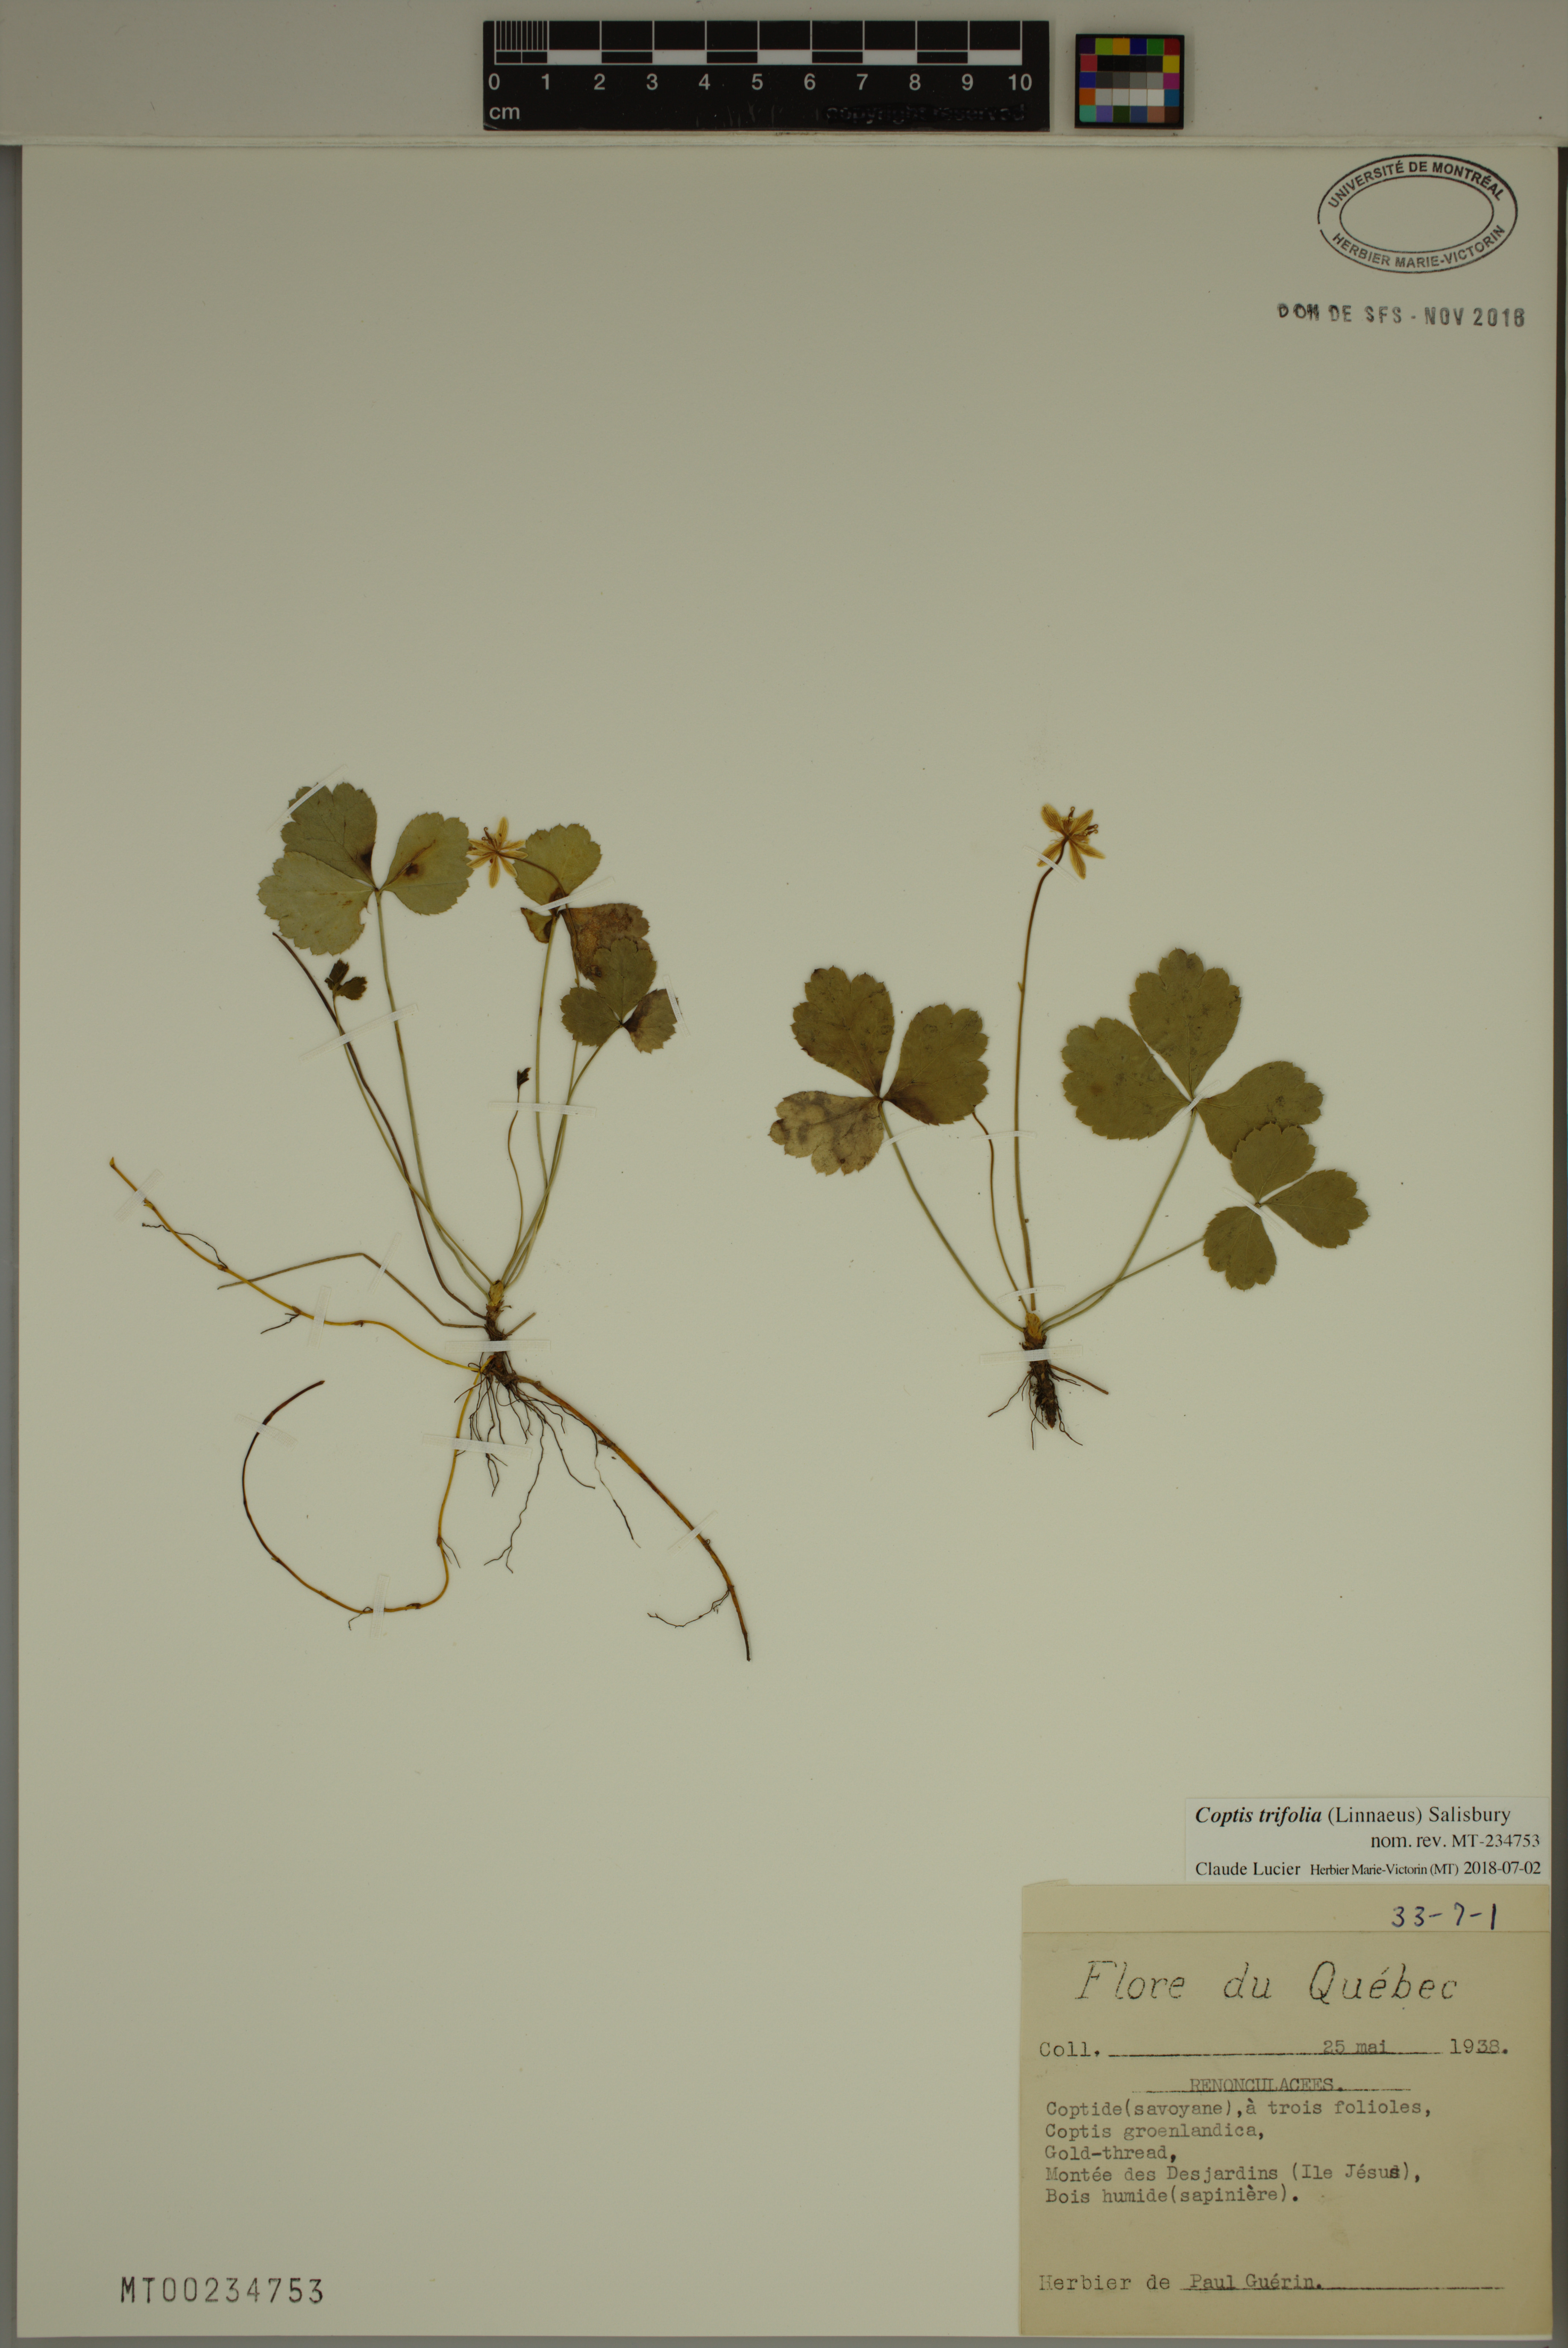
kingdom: Plantae
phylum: Tracheophyta
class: Magnoliopsida
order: Ranunculales
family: Ranunculaceae
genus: Coptis
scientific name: Coptis trifolia
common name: Canker-root
